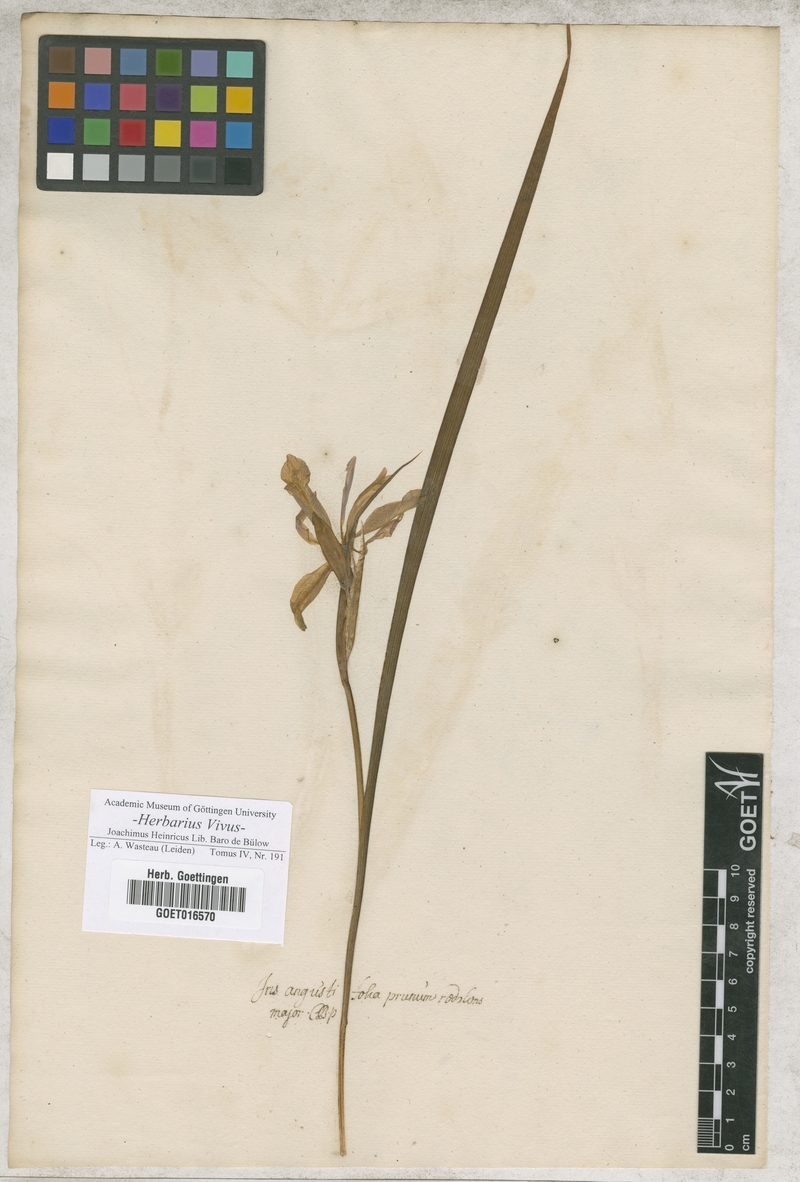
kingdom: Plantae
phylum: Tracheophyta
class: Liliopsida
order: Asparagales
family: Iridaceae
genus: Iris
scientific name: Iris
